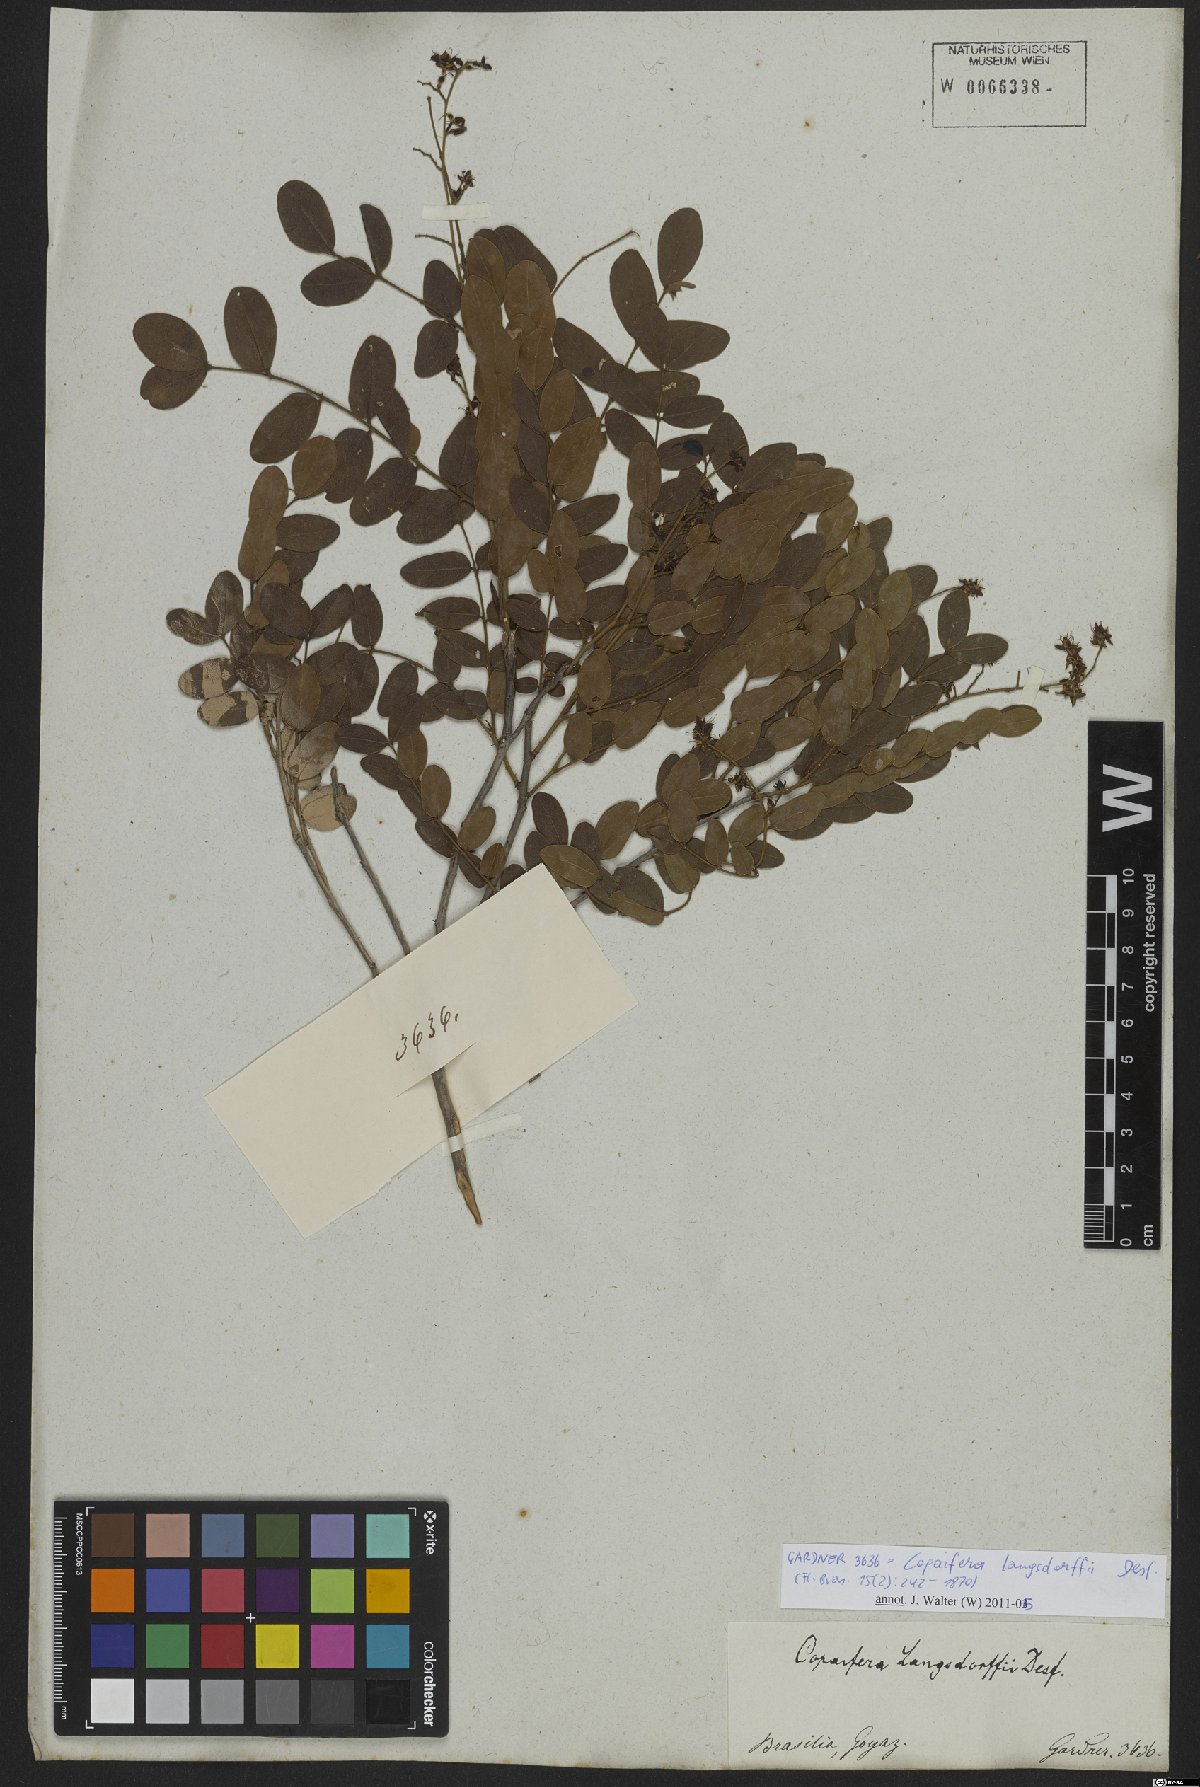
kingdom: Plantae
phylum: Tracheophyta
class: Magnoliopsida
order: Fabales
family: Fabaceae
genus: Copaifera
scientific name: Copaifera langsdorffii
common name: Brazilian diesel tree
